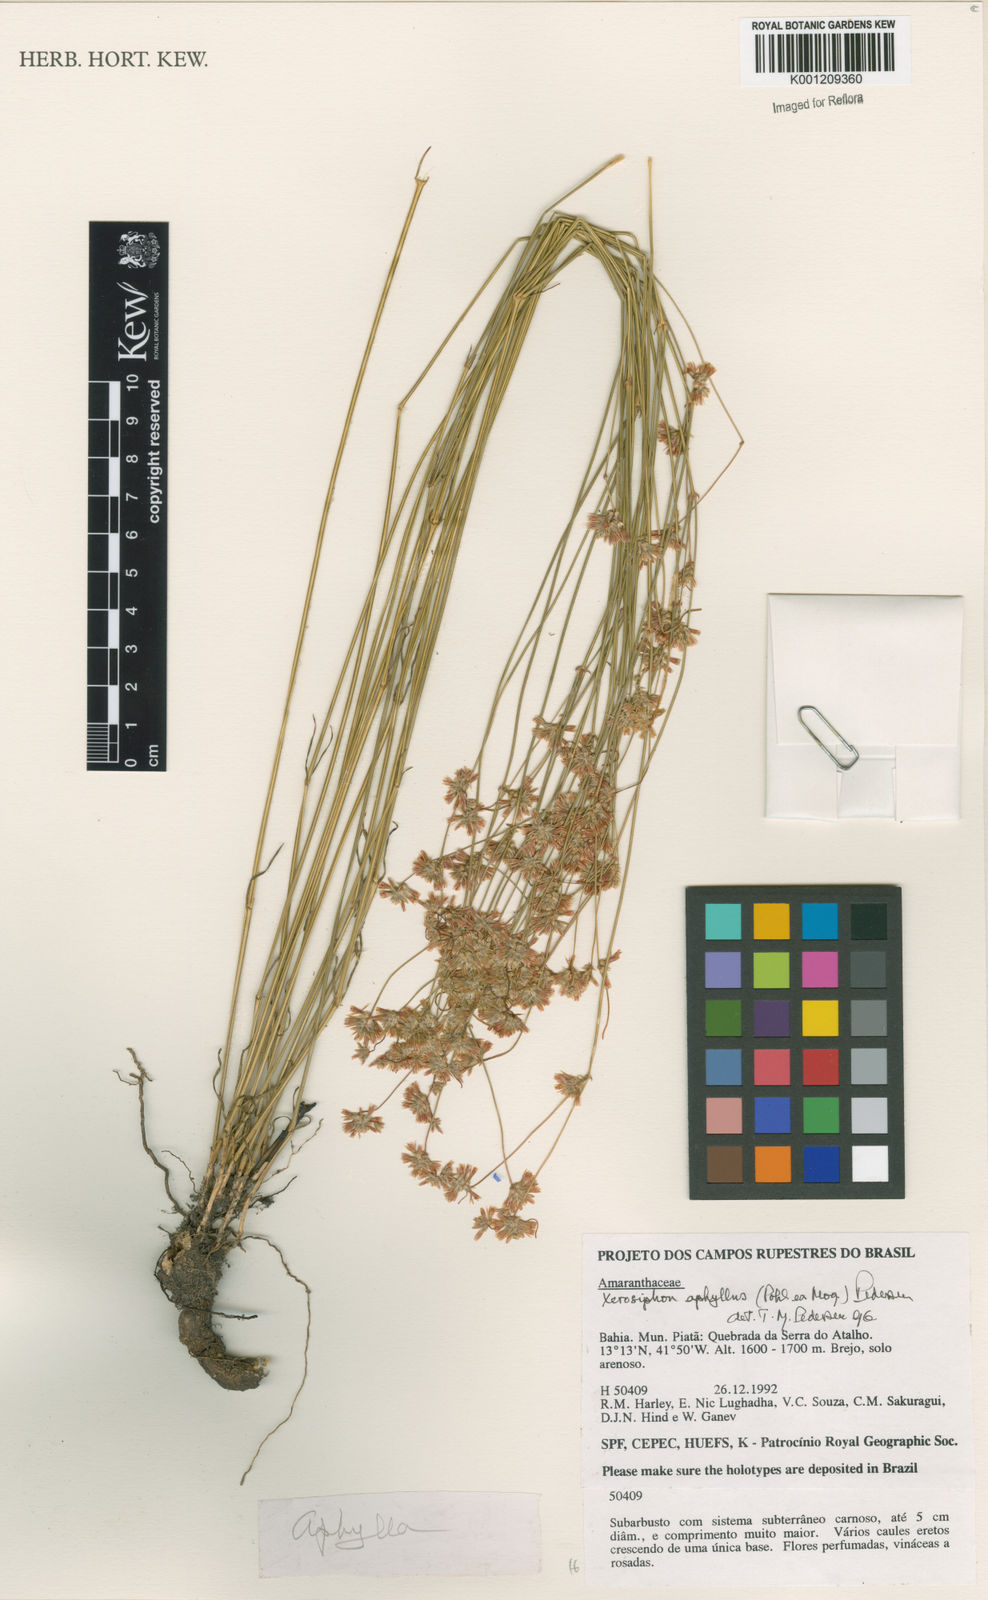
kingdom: Plantae
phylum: Tracheophyta
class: Magnoliopsida
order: Caryophyllales
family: Amaranthaceae
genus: Gomphrena
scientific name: Gomphrena aphylla
